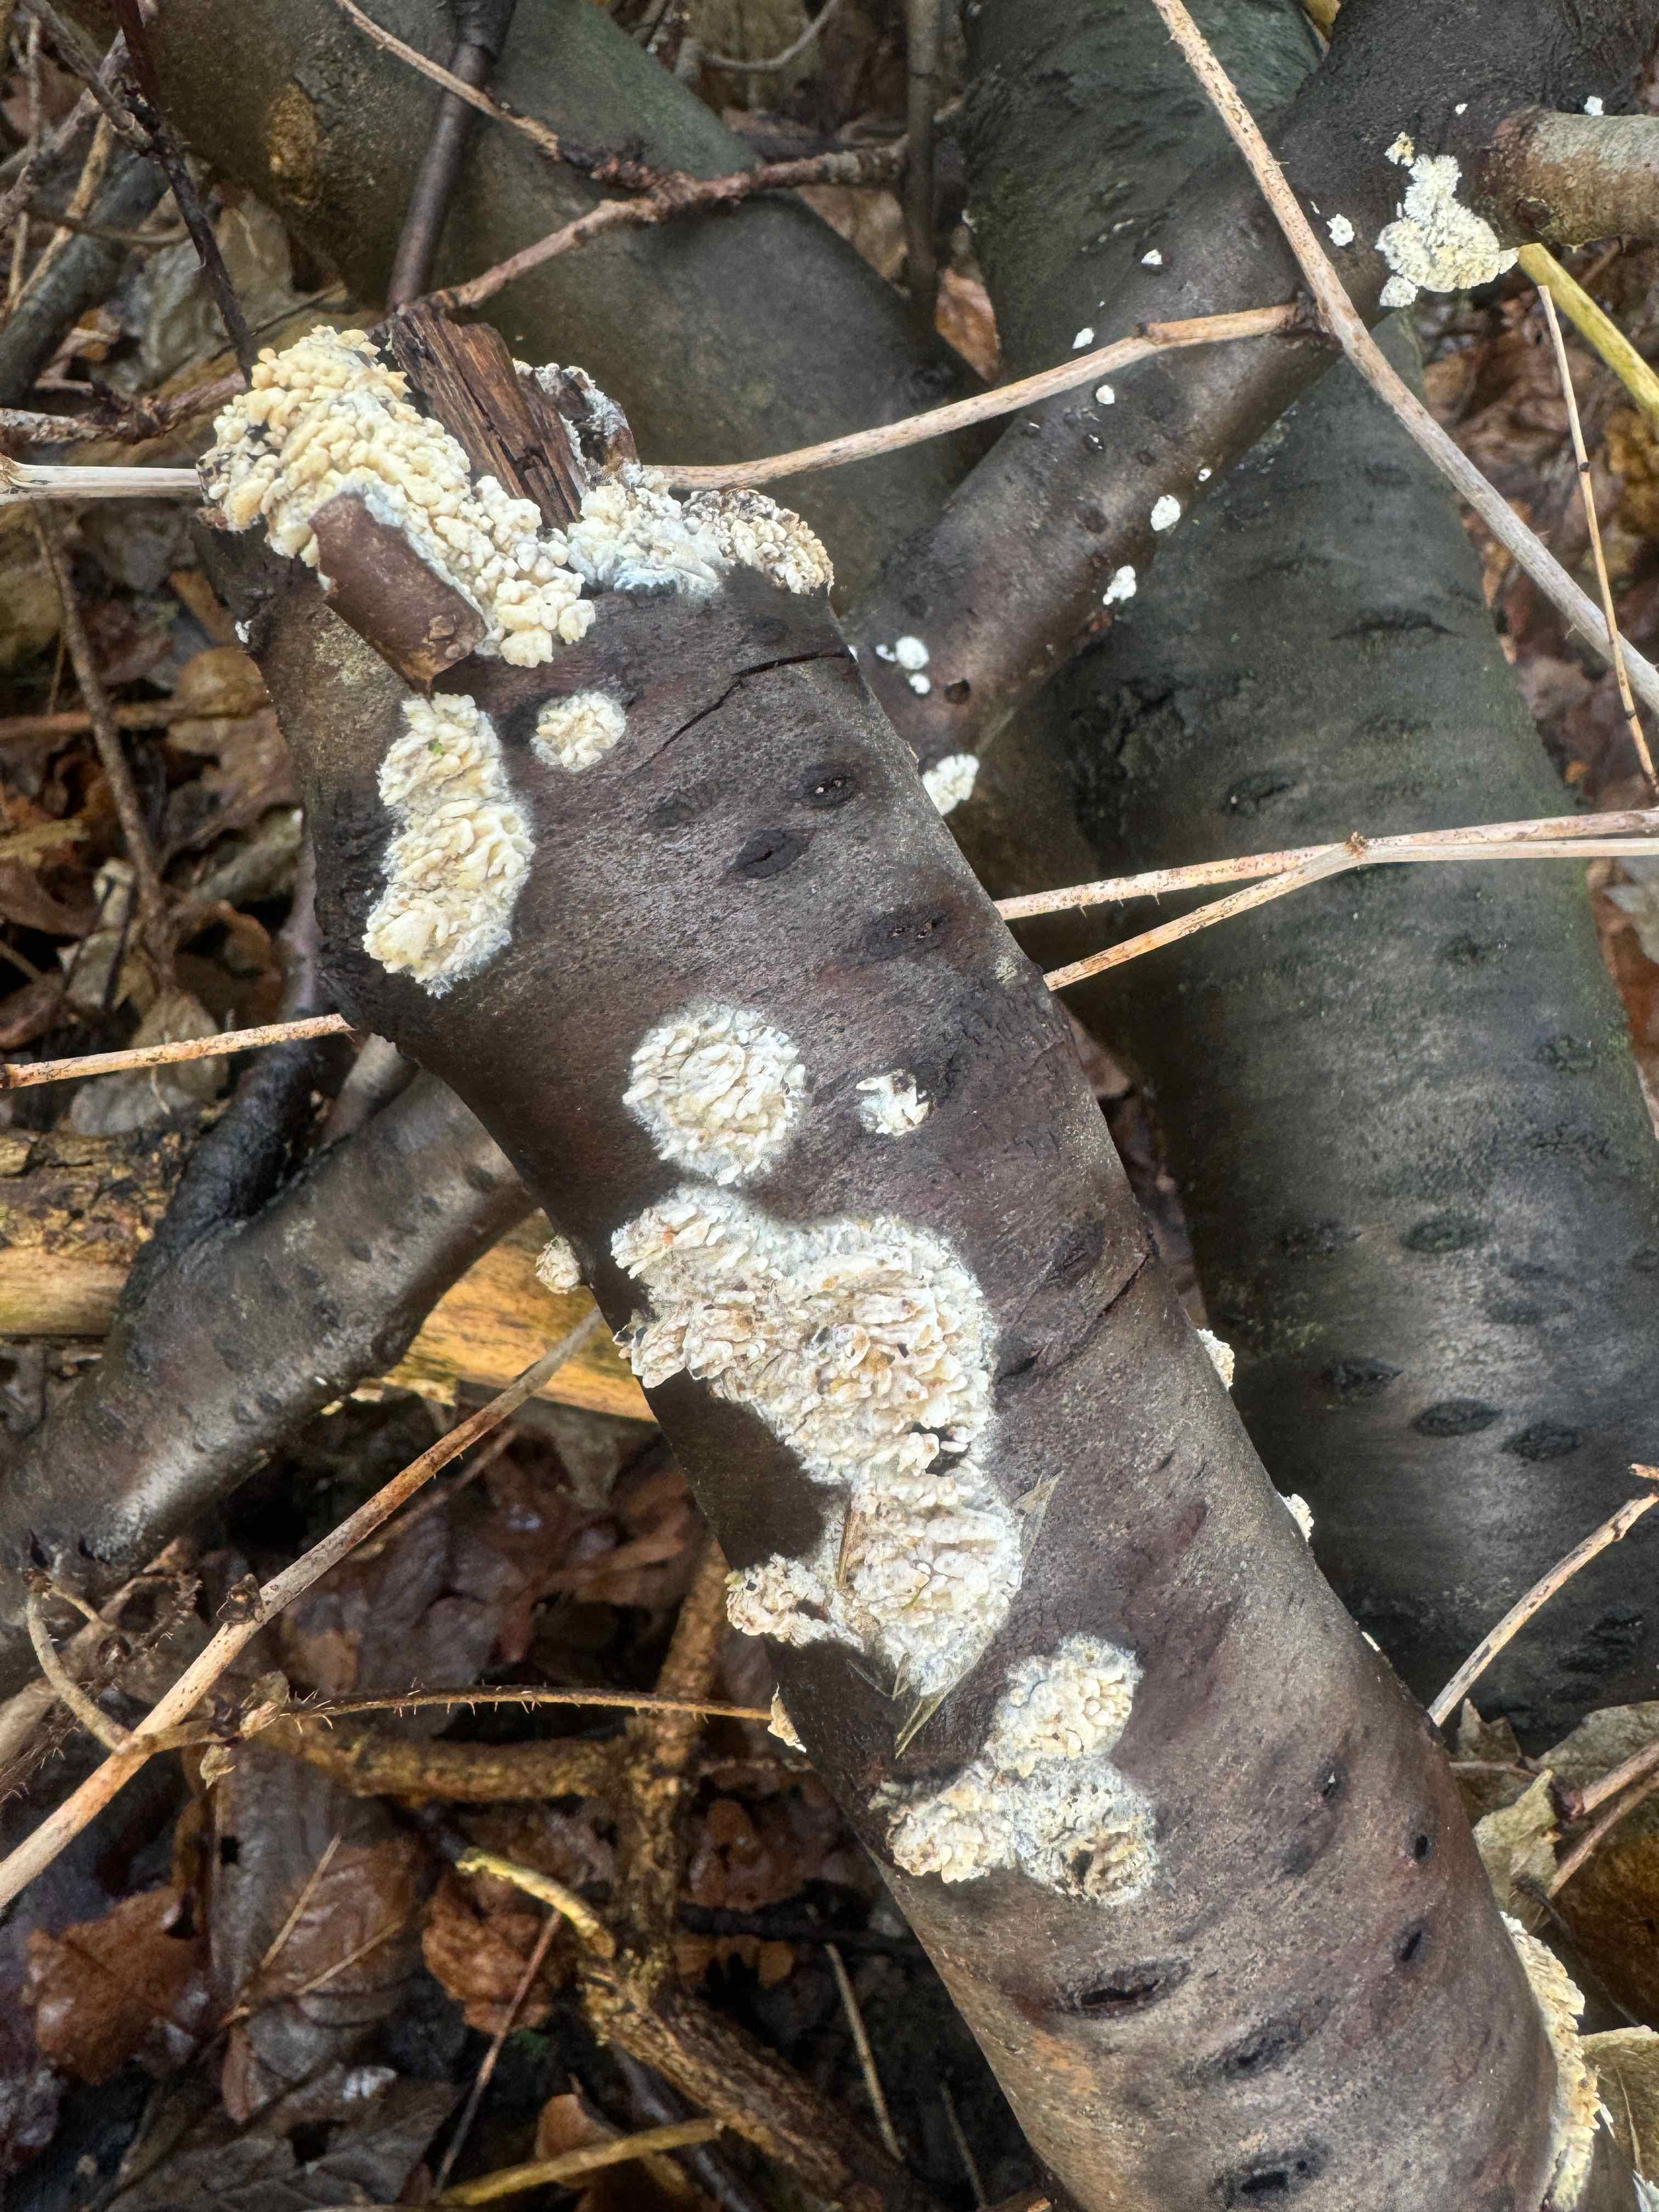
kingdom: Fungi
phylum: Basidiomycota
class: Agaricomycetes
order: Hymenochaetales
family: Schizoporaceae
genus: Xylodon
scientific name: Xylodon radula
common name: grovtandet kalkskind
